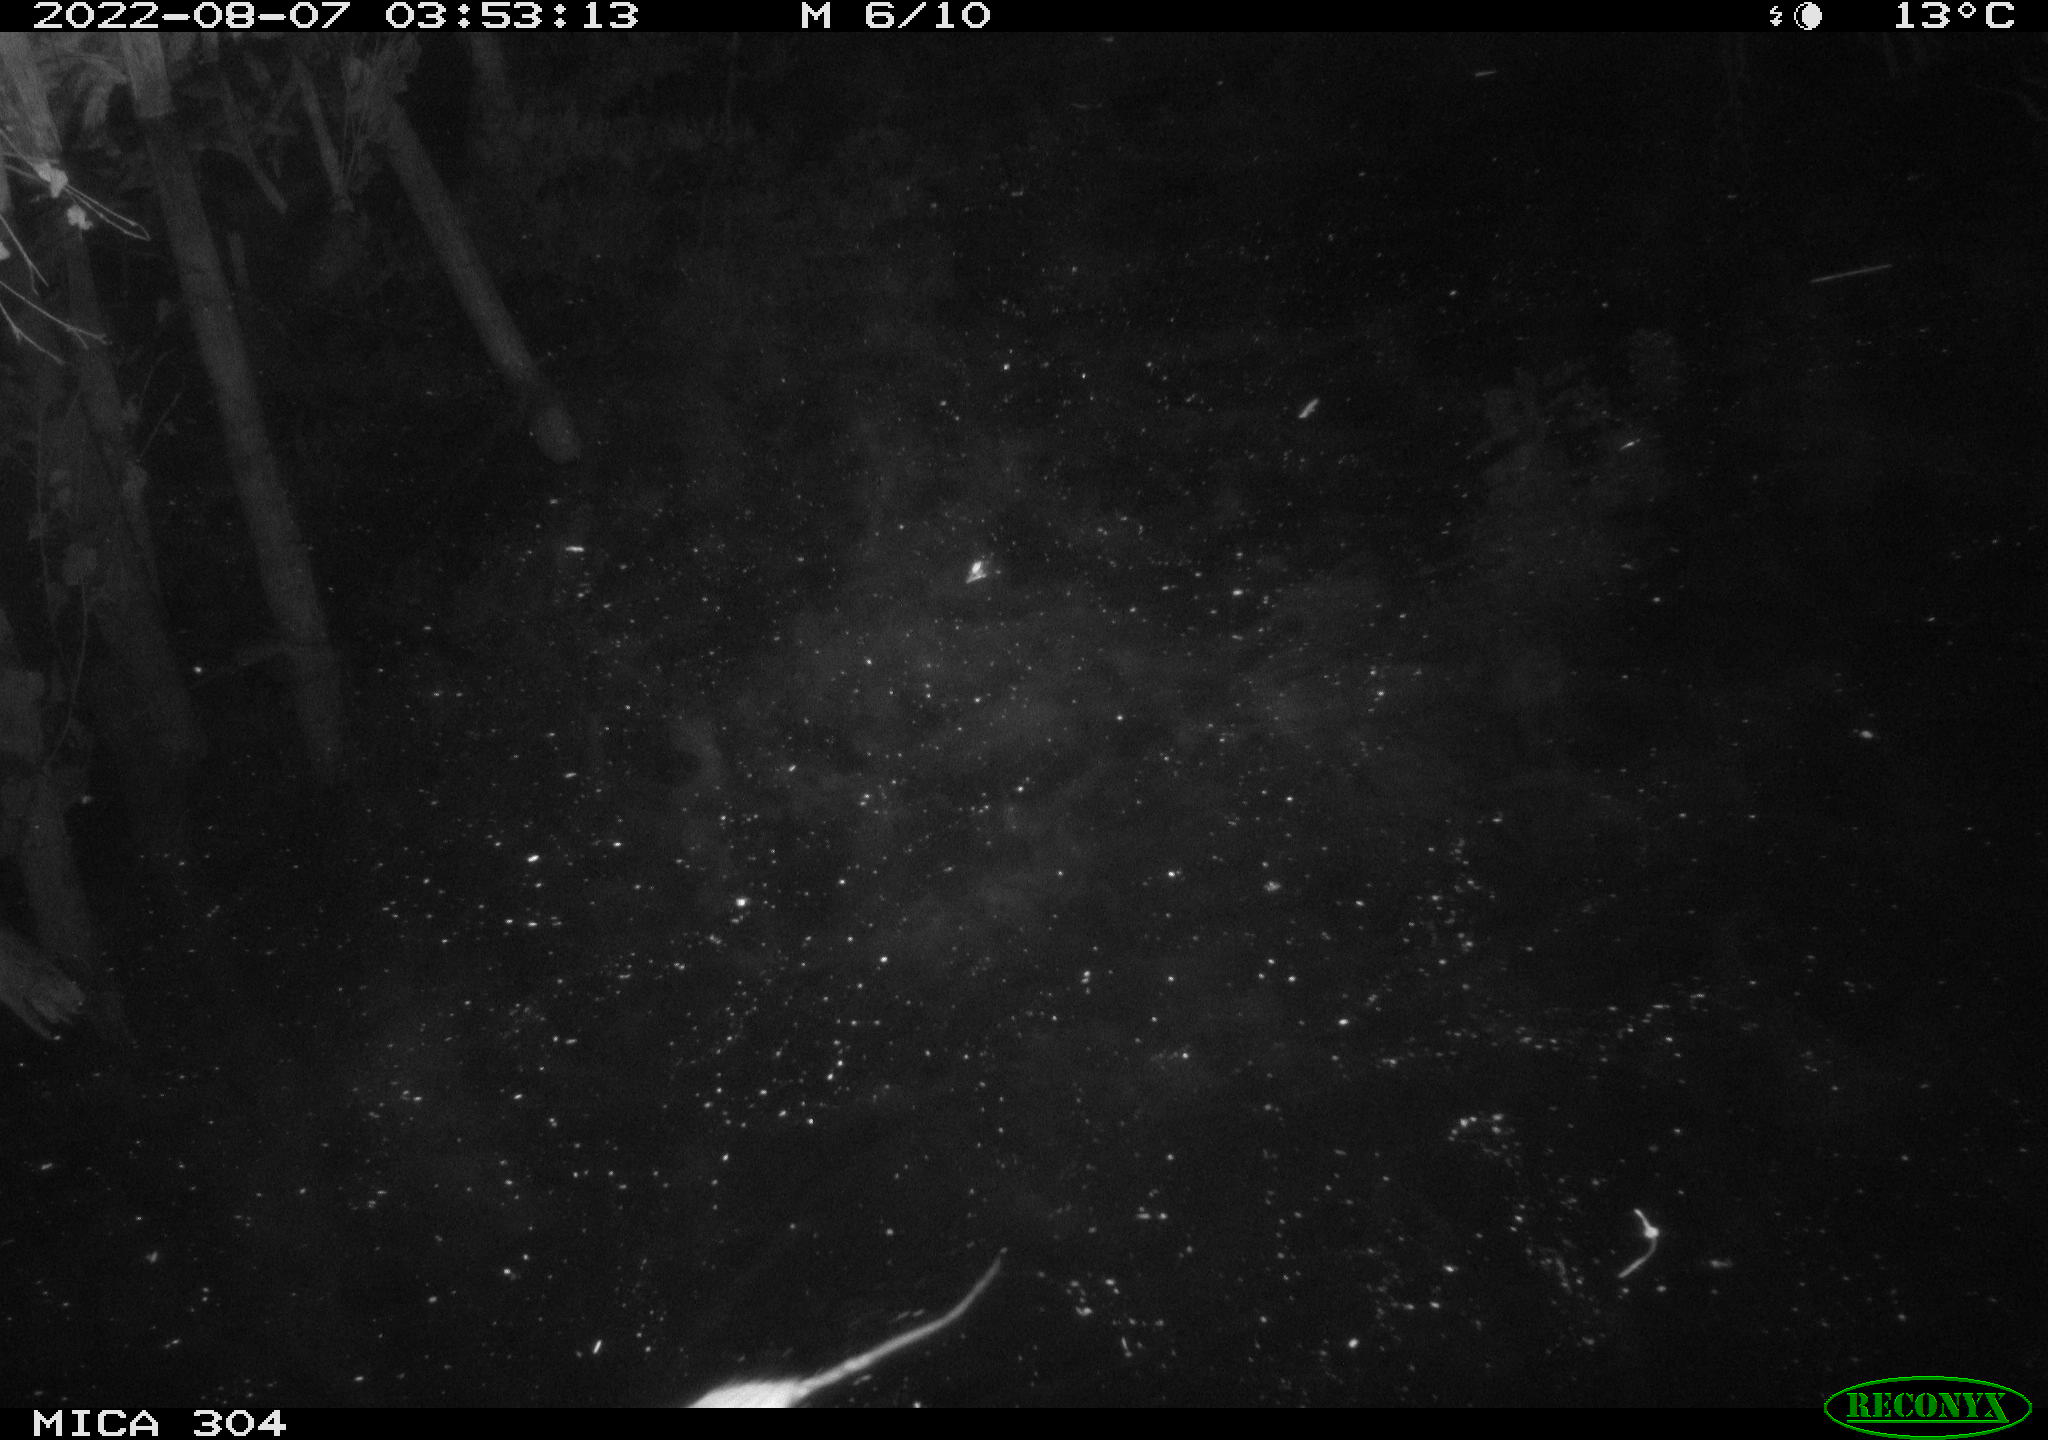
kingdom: Animalia
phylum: Chordata
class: Mammalia
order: Rodentia
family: Muridae
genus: Rattus
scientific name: Rattus norvegicus
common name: Brown rat
